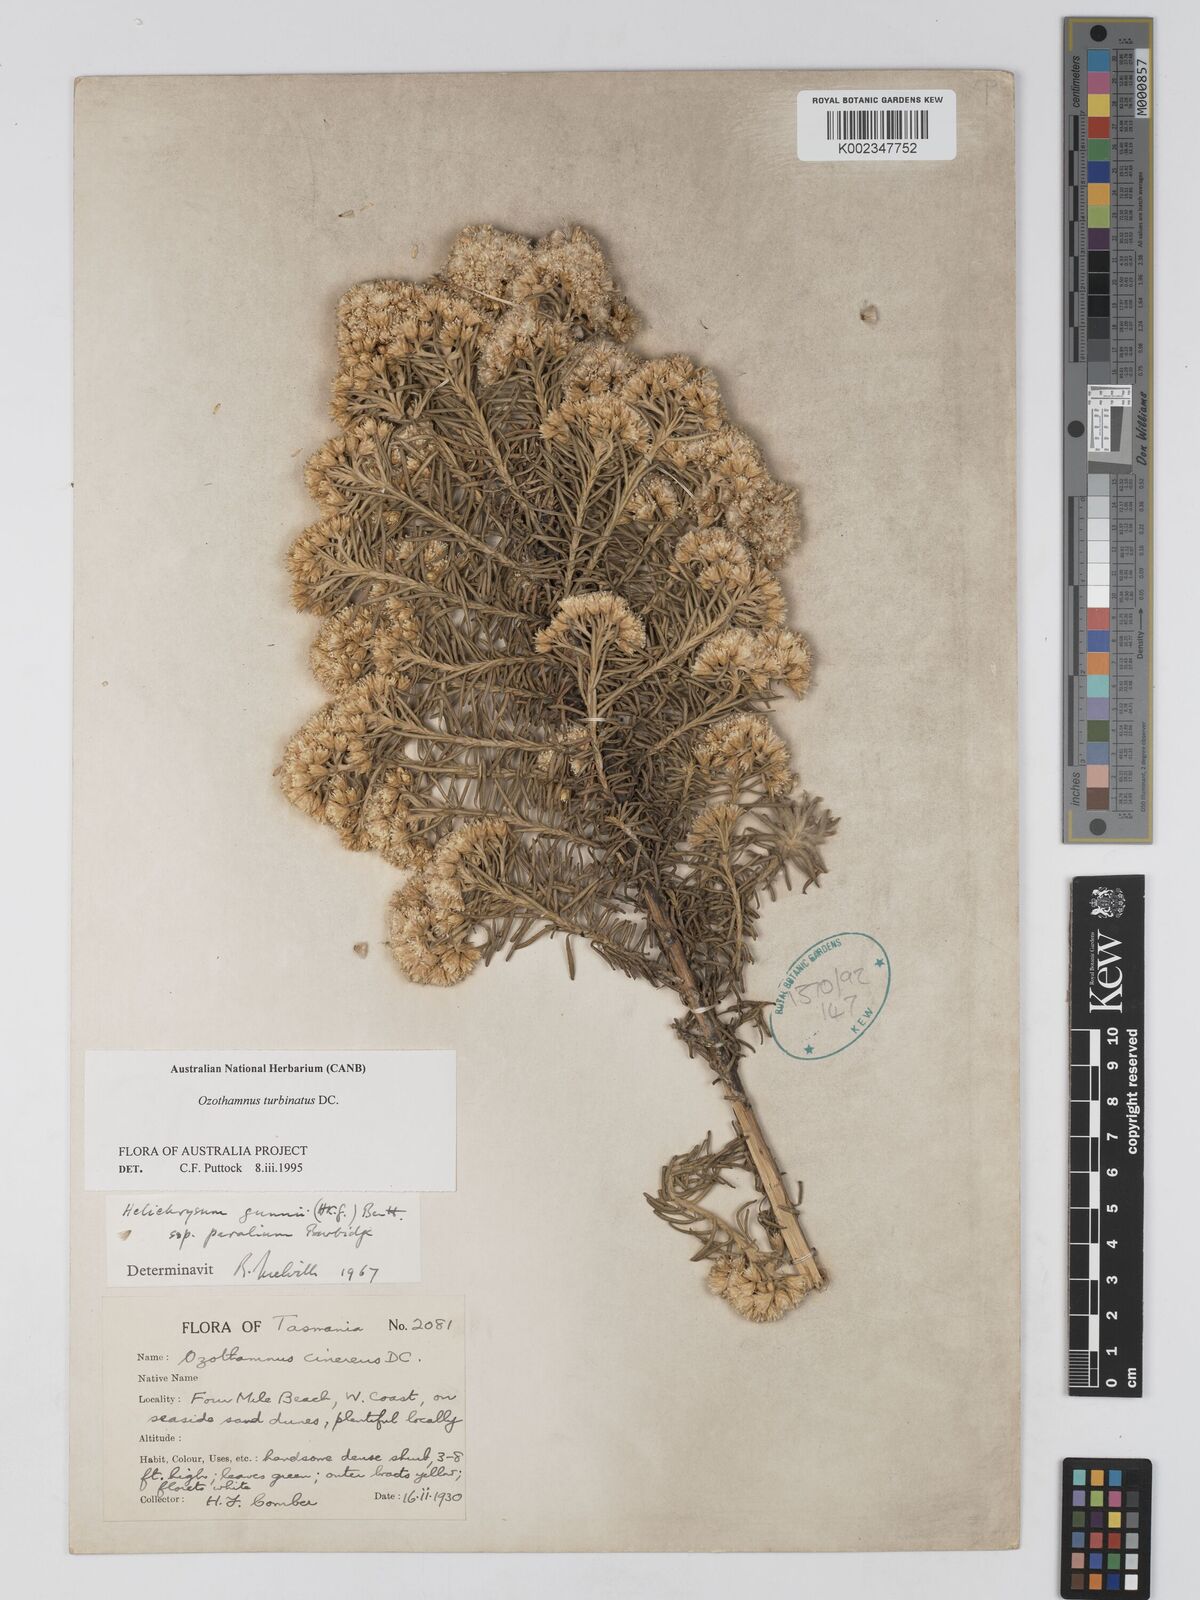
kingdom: Plantae
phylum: Tracheophyta
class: Magnoliopsida
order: Asterales
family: Asteraceae
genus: Ozothamnus
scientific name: Ozothamnus cinereus
